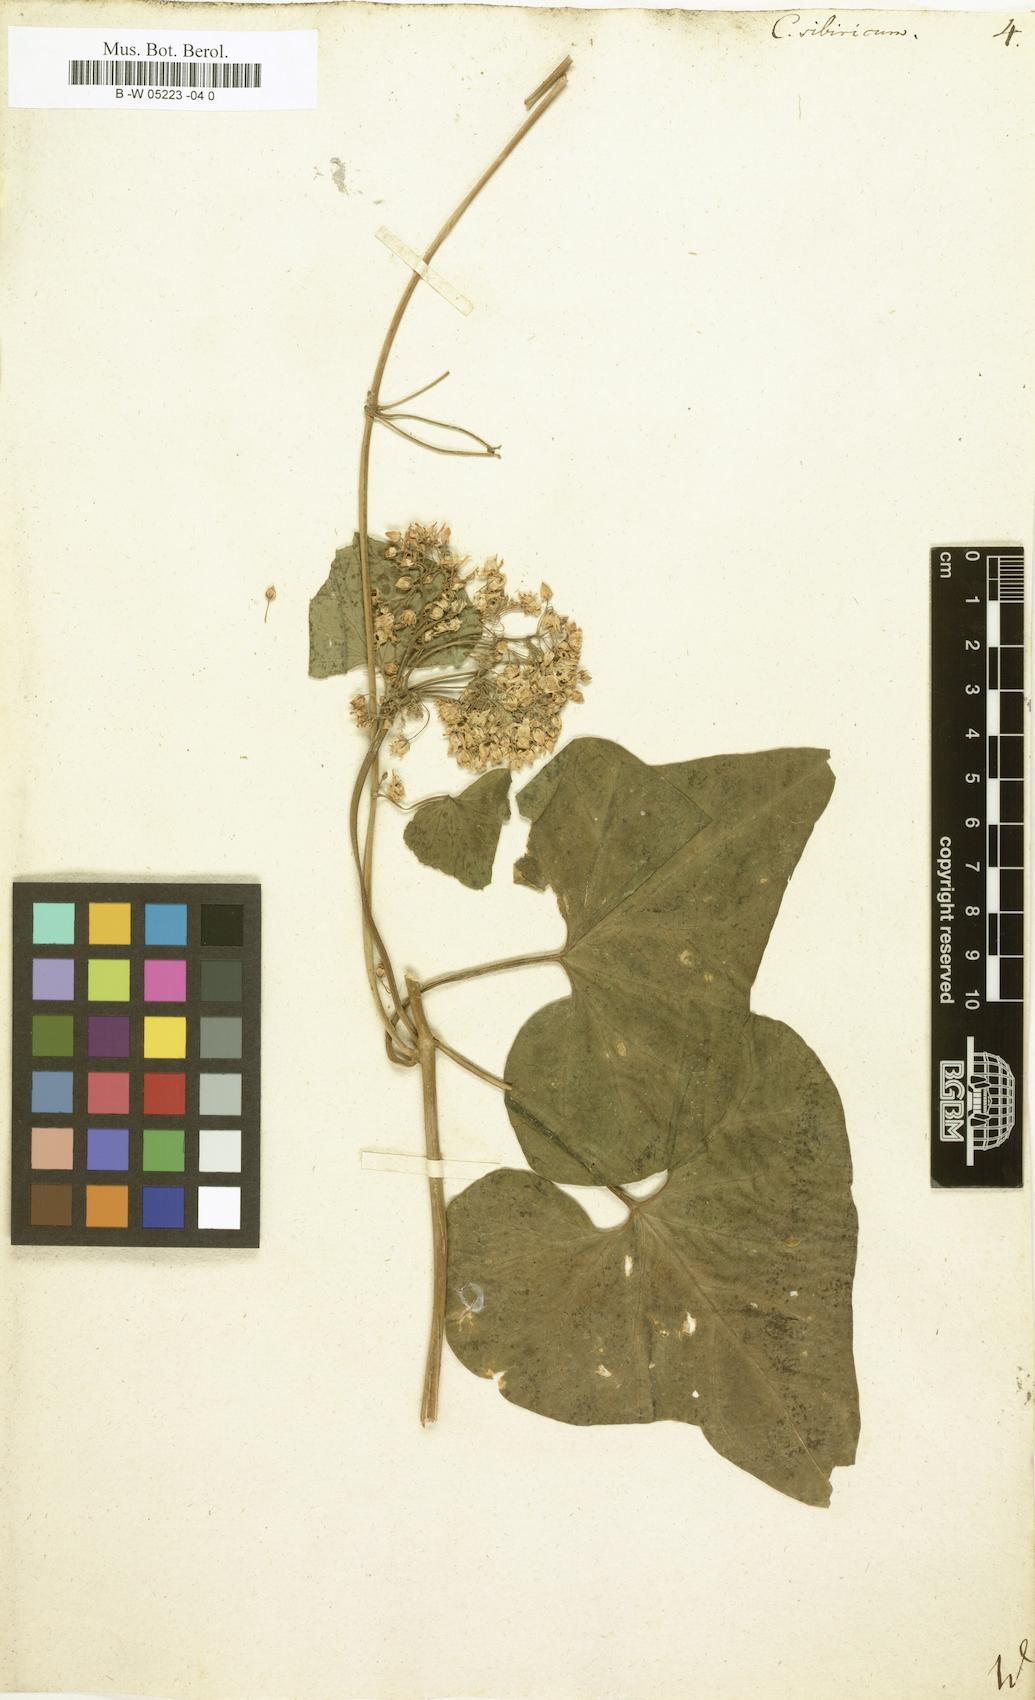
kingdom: Plantae
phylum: Tracheophyta
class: Magnoliopsida
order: Gentianales
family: Apocynaceae
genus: Cynanchum
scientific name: Cynanchum
